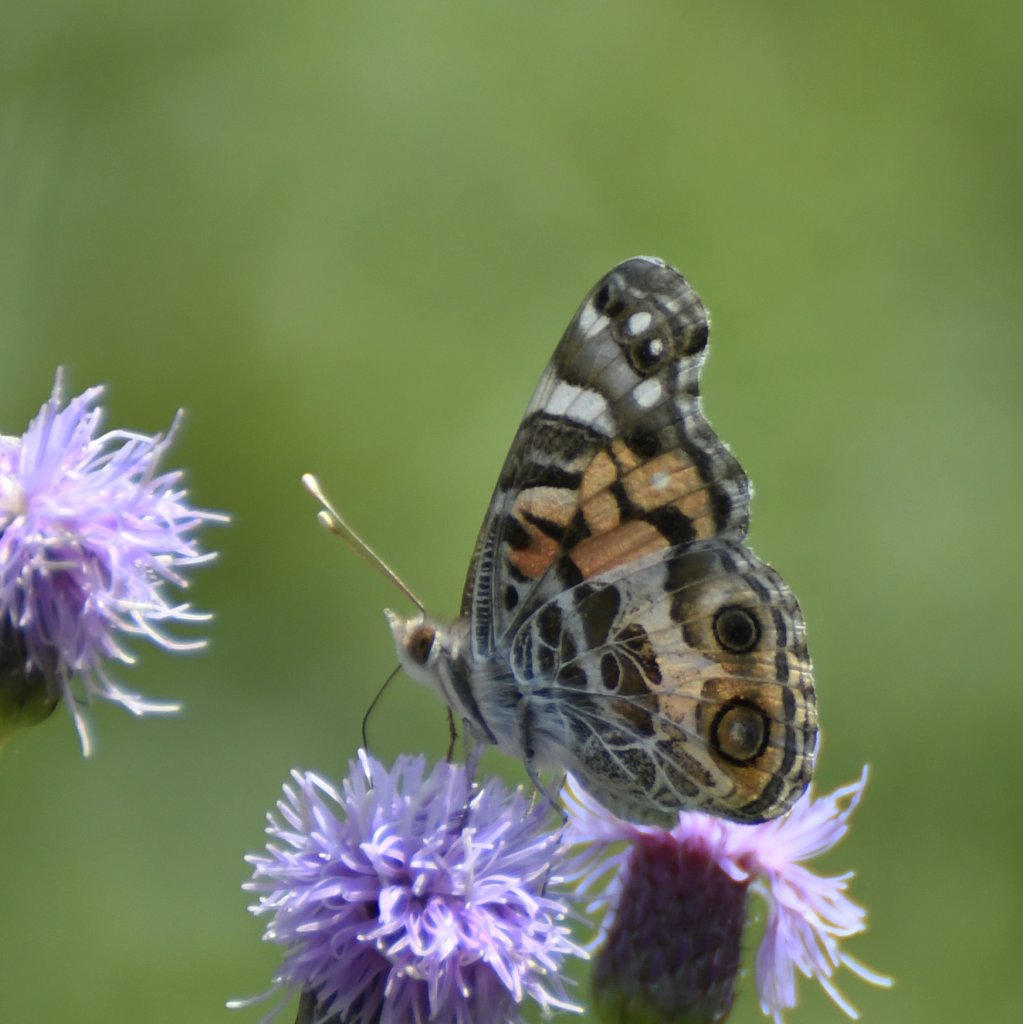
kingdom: Animalia
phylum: Arthropoda
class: Insecta
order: Lepidoptera
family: Nymphalidae
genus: Vanessa
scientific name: Vanessa virginiensis
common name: American Lady
